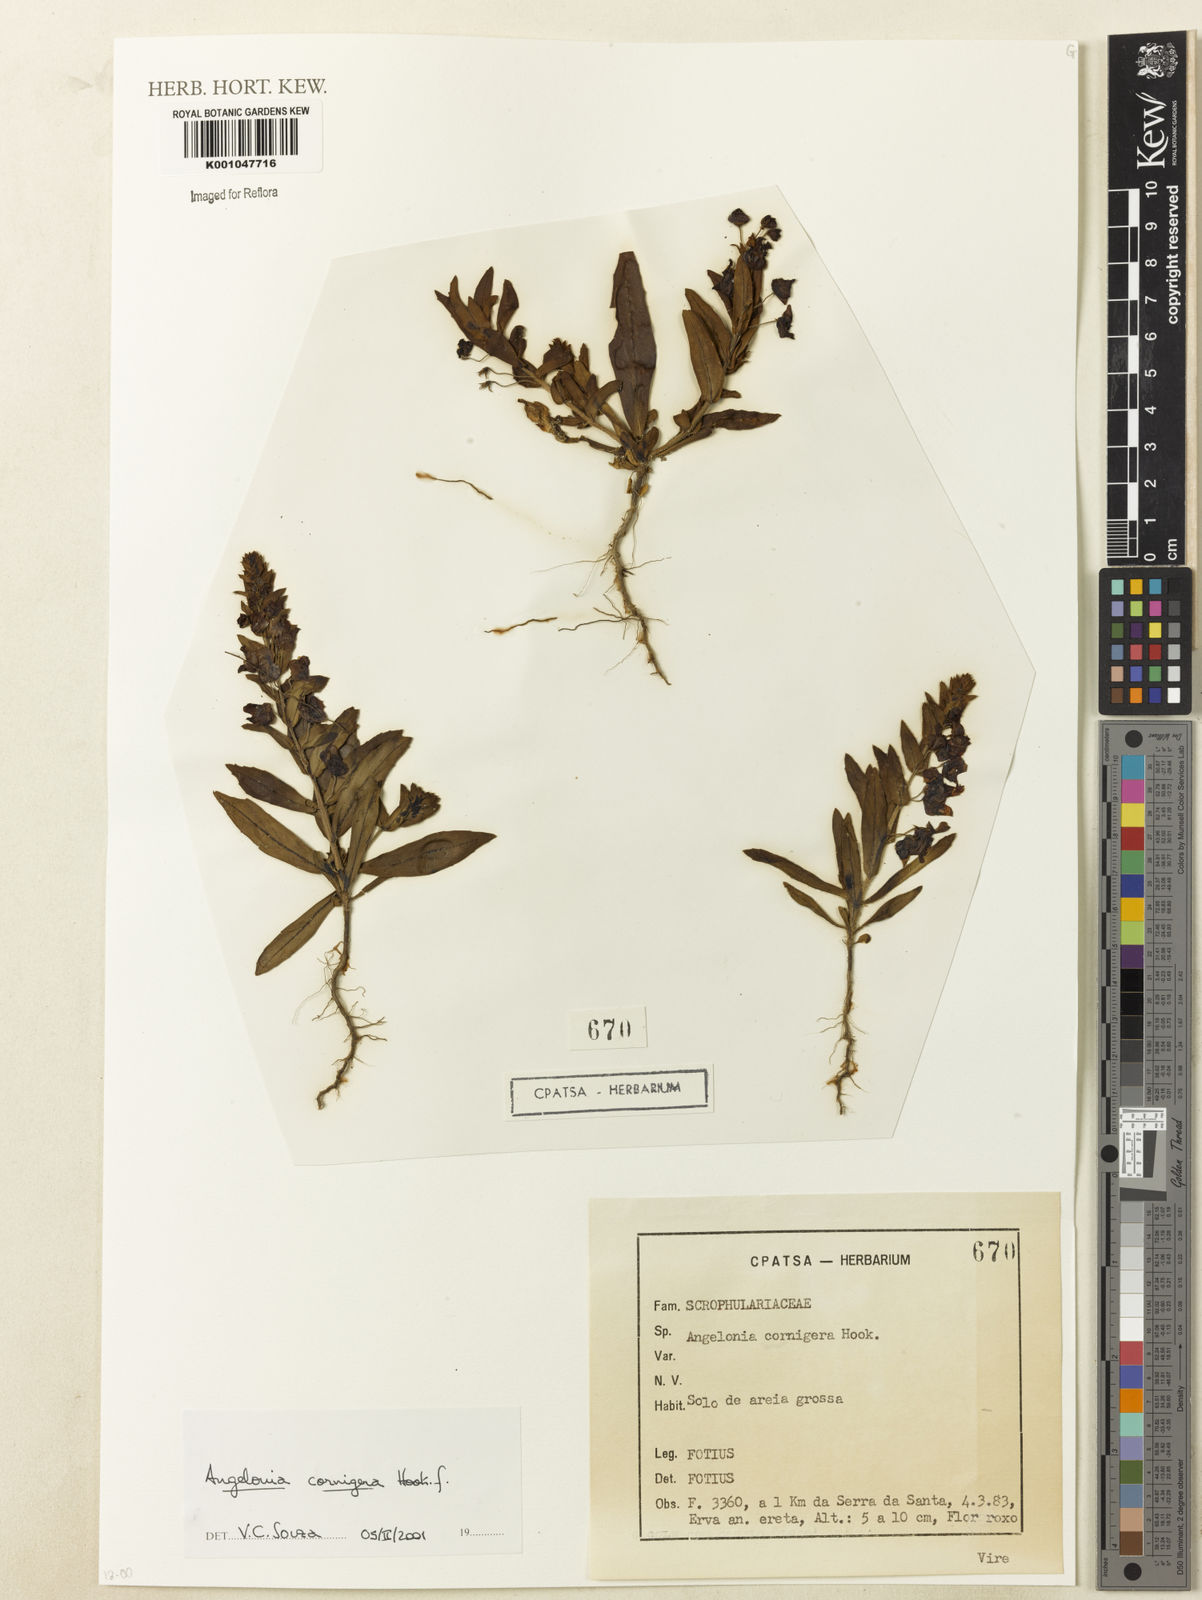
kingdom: Plantae
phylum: Tracheophyta
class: Magnoliopsida
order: Lamiales
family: Plantaginaceae
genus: Angelonia
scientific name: Angelonia cornigera
